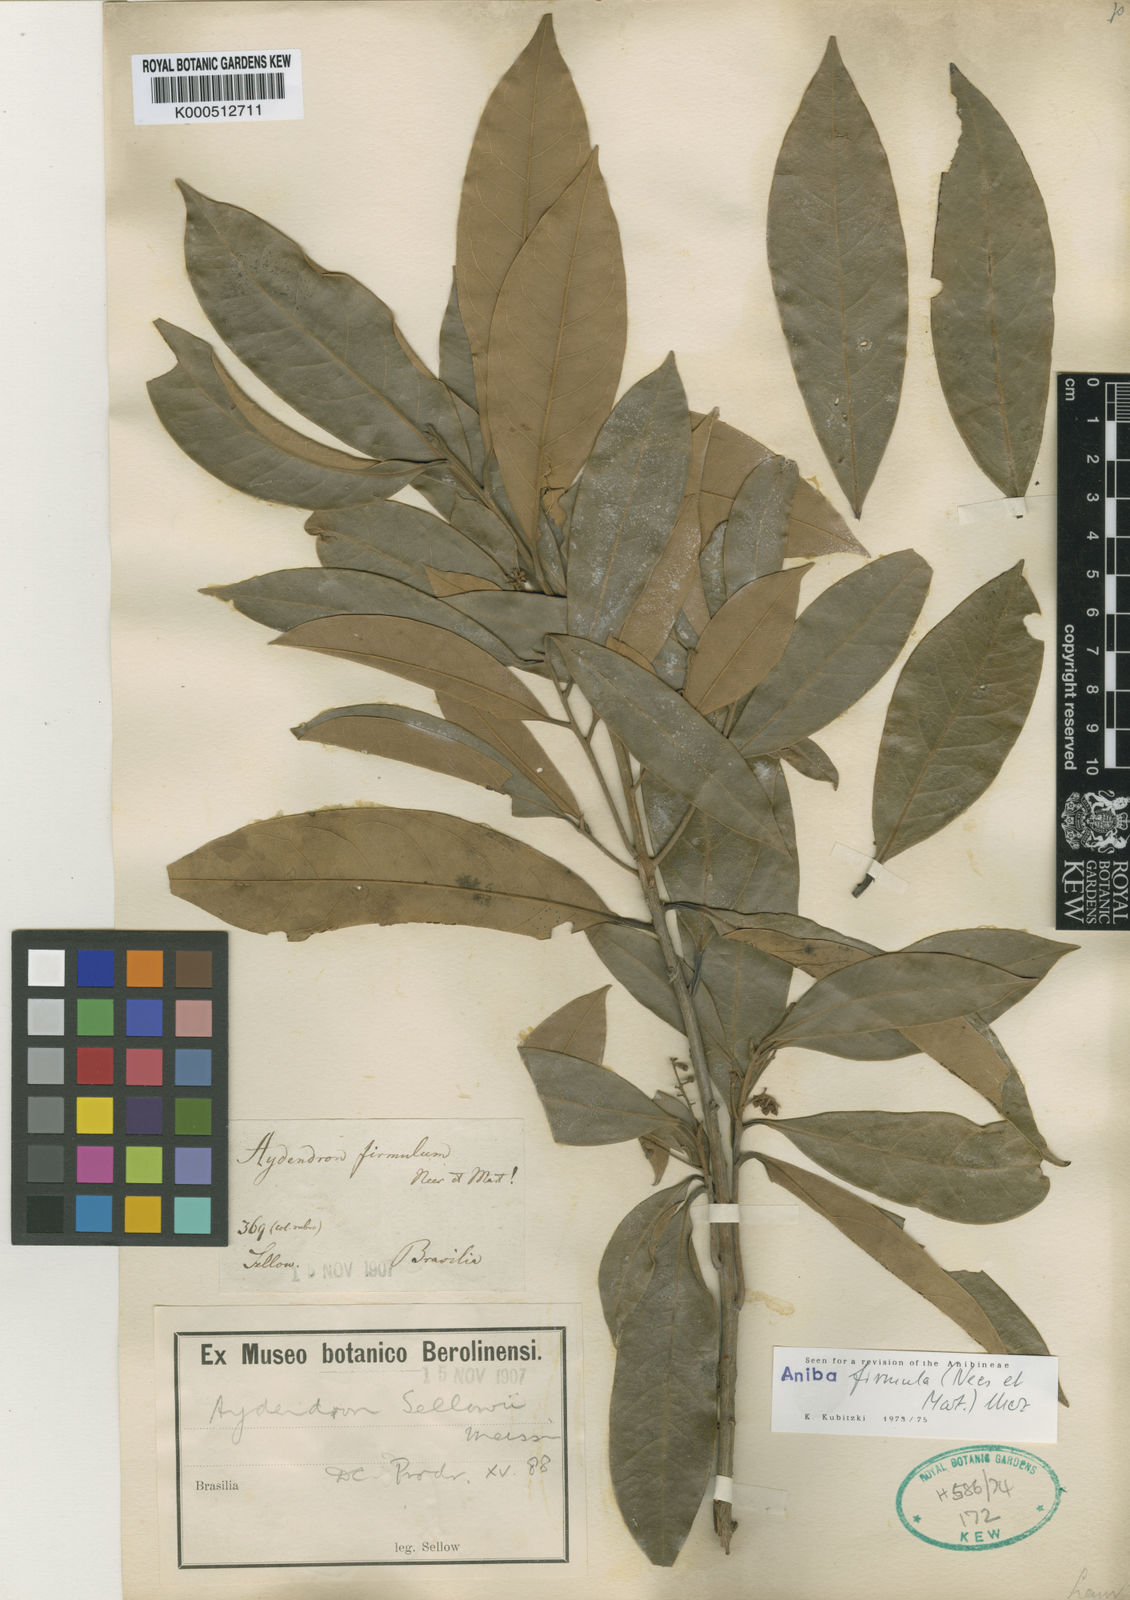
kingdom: Plantae
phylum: Tracheophyta
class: Magnoliopsida
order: Laurales
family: Lauraceae
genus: Aniba
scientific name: Aniba firmula
